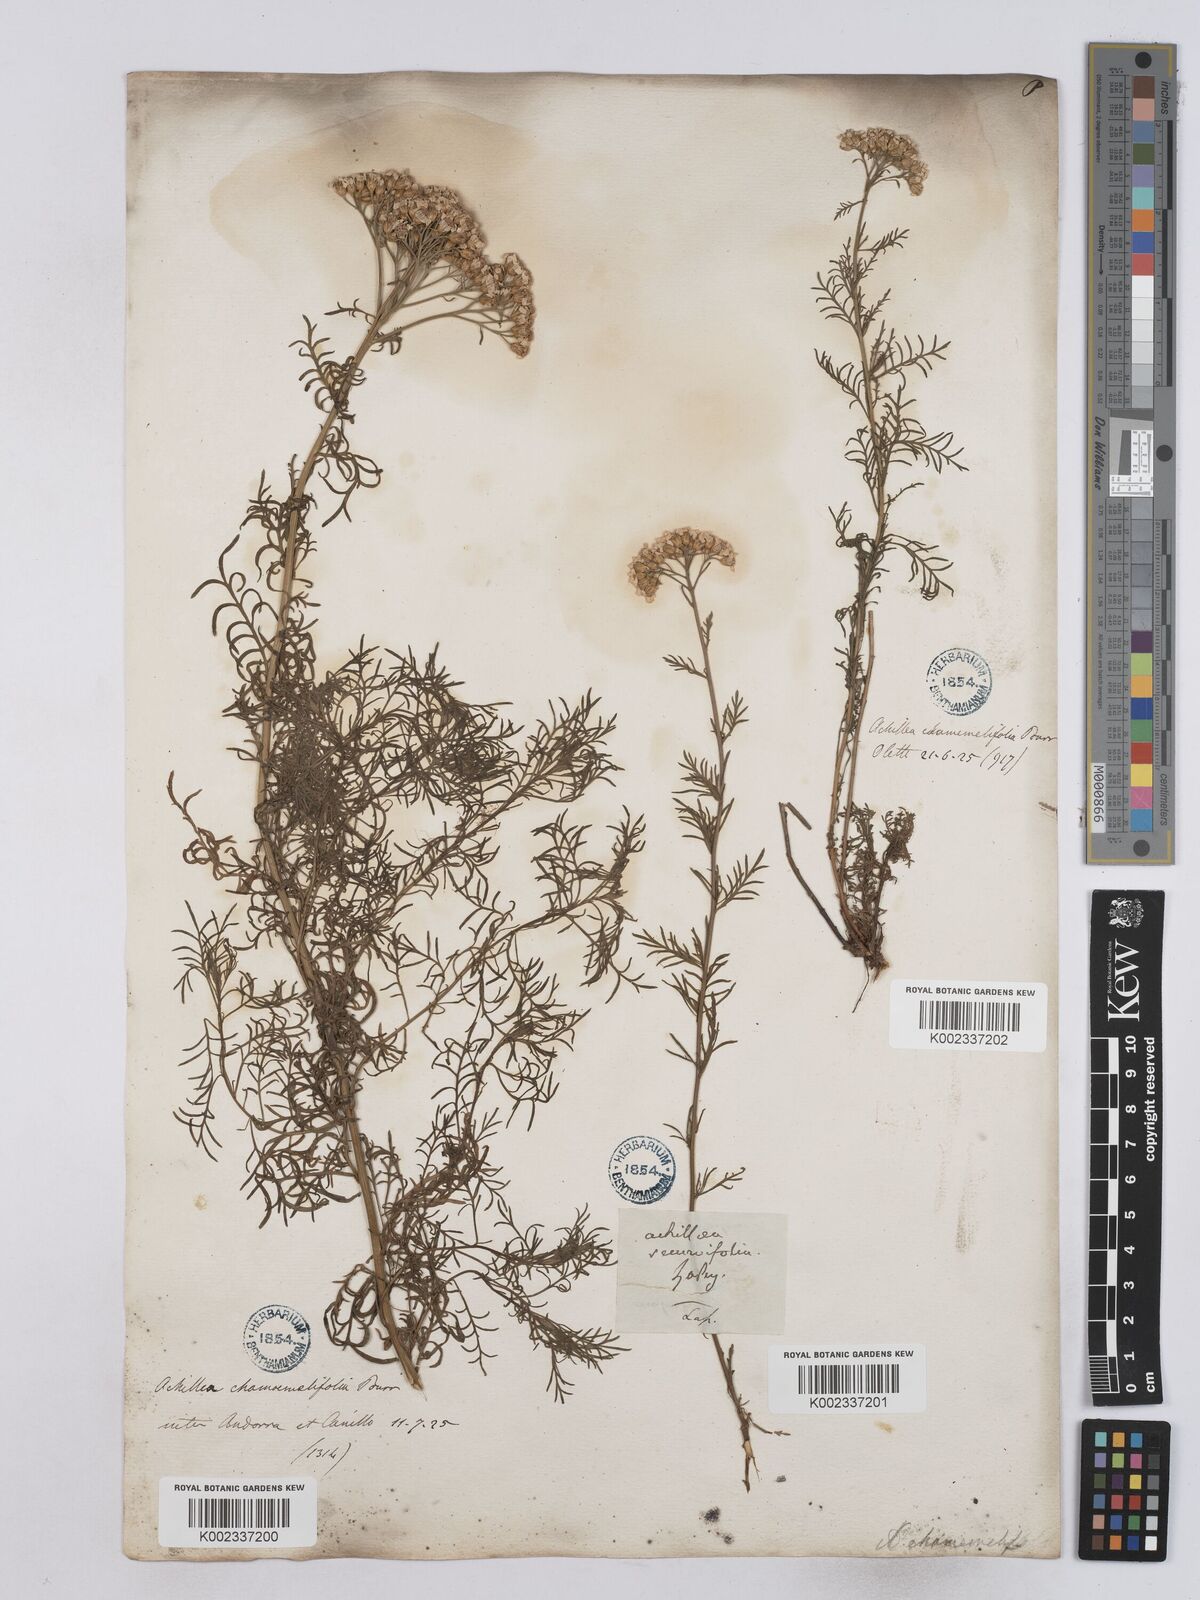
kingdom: Plantae
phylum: Tracheophyta
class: Magnoliopsida
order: Asterales
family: Asteraceae
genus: Achillea
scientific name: Achillea chamaemelifolia
